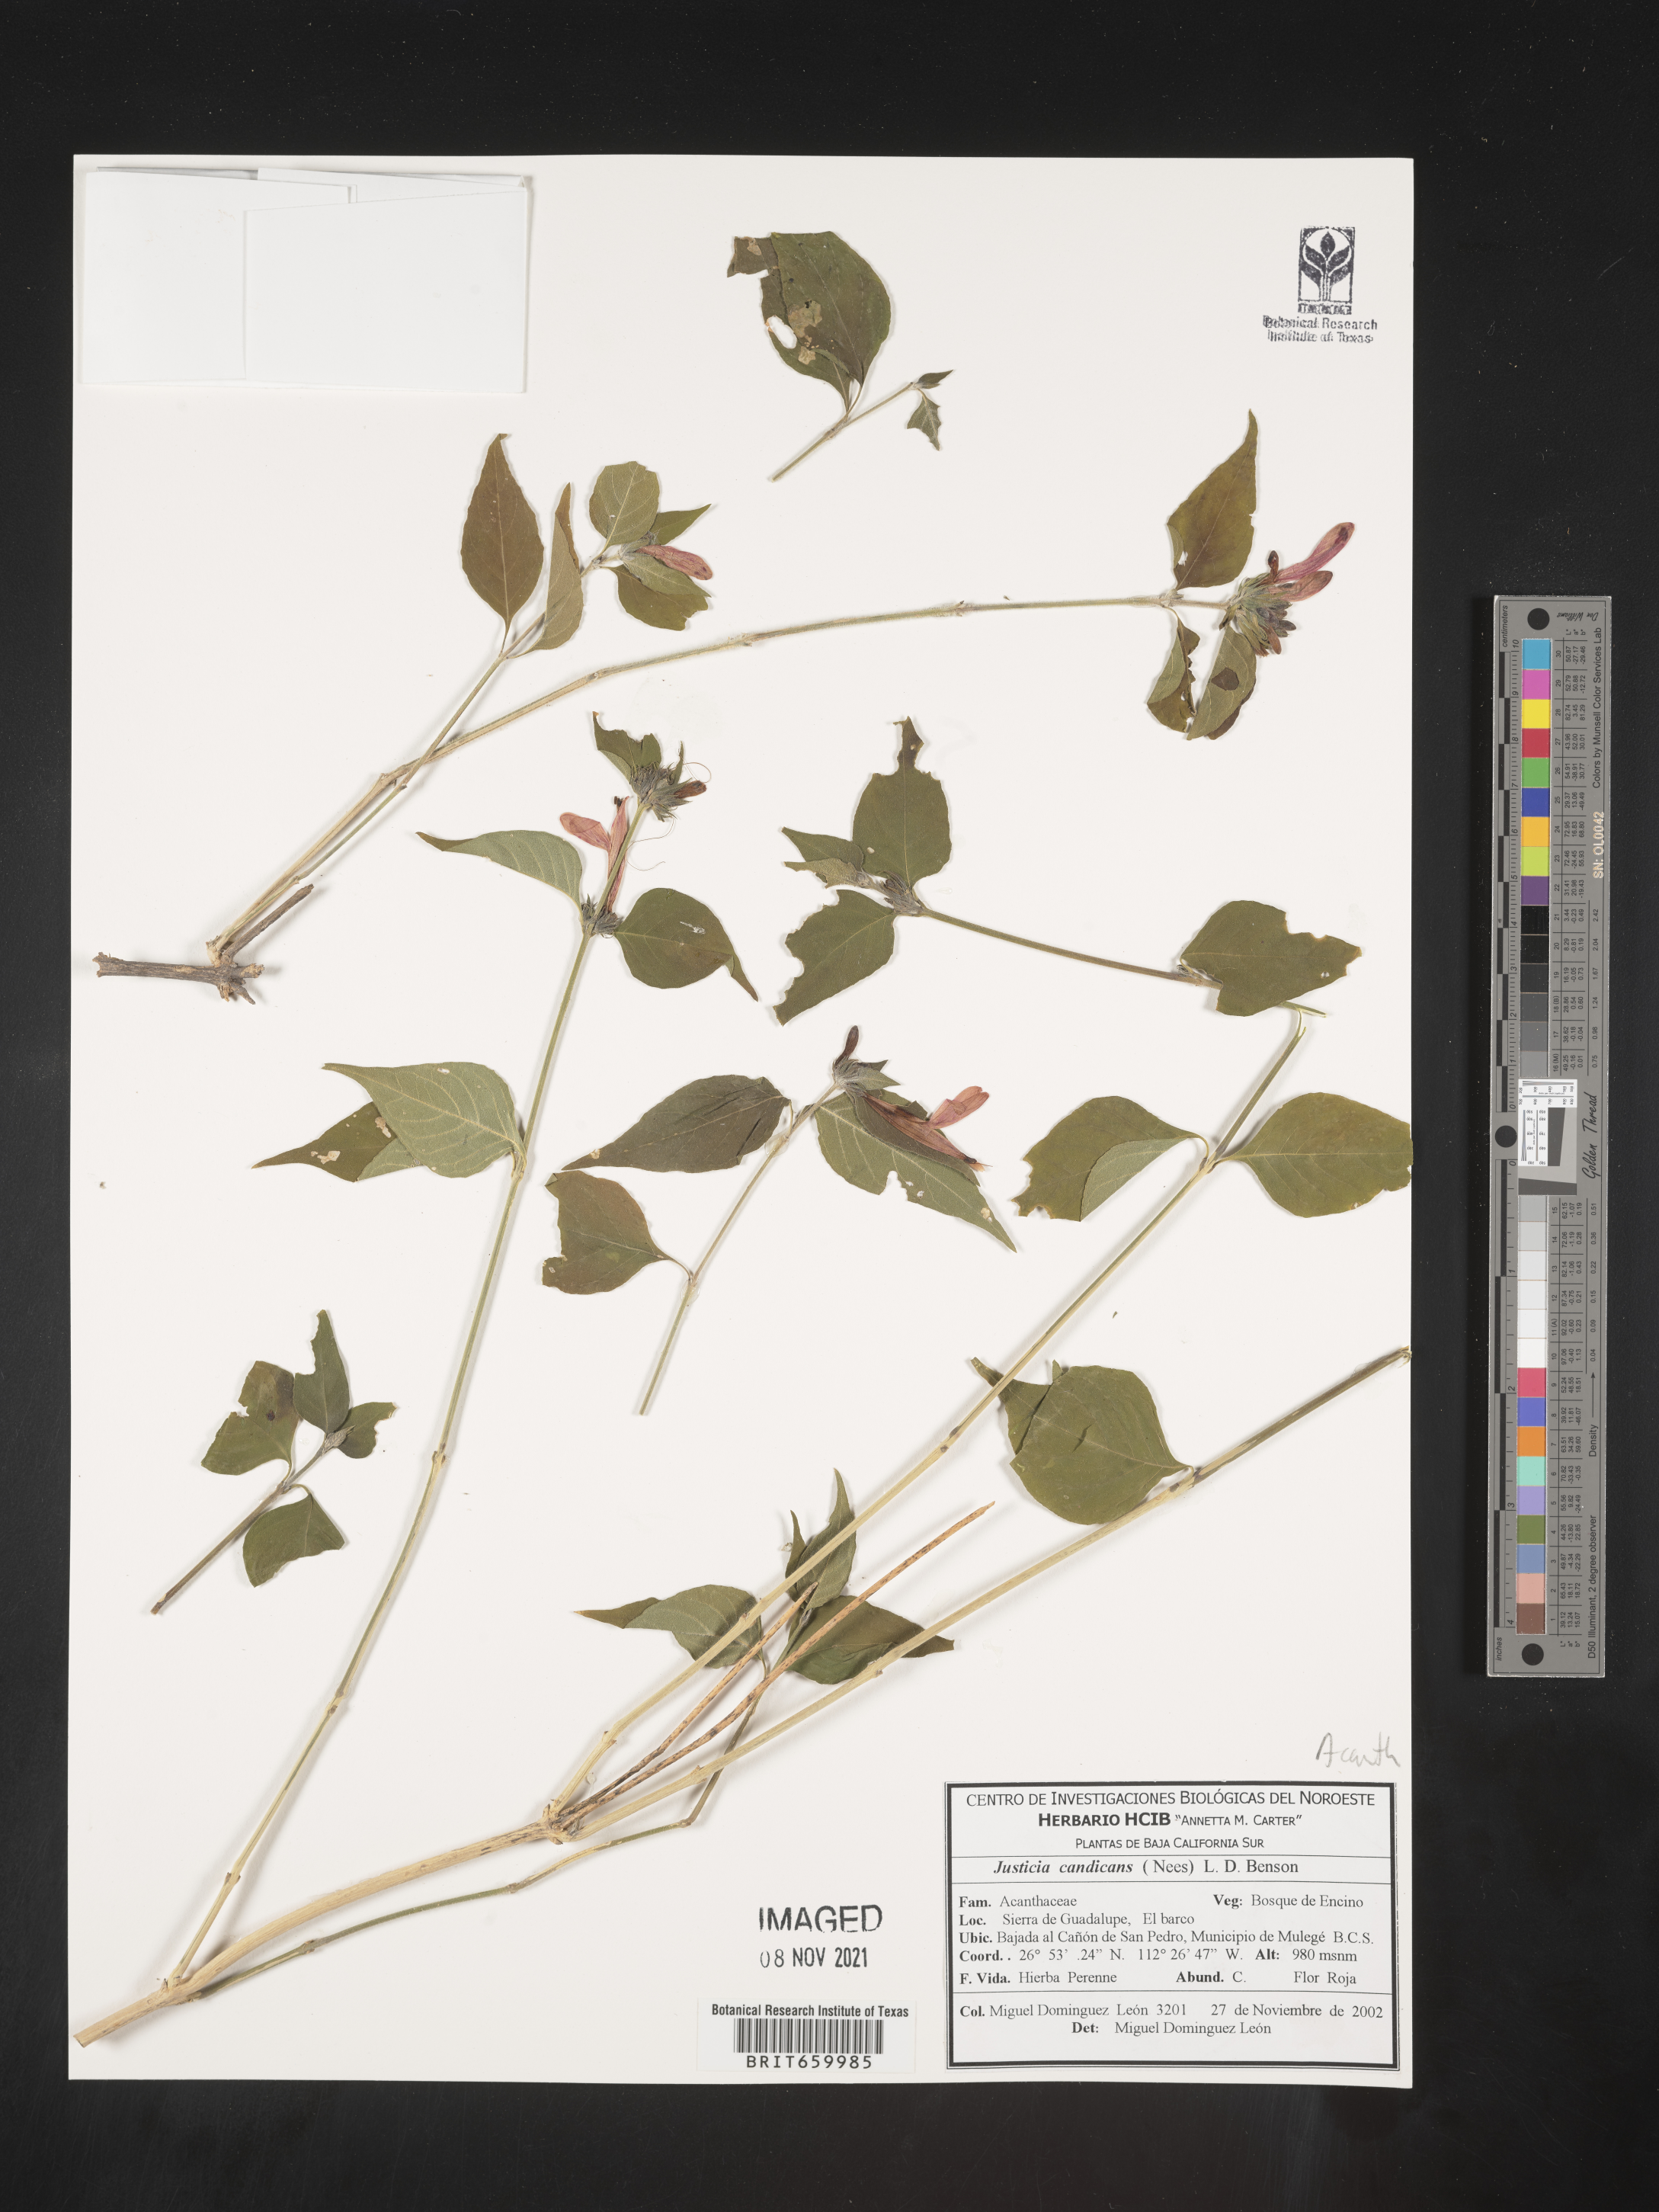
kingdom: Plantae
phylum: Tracheophyta
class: Magnoliopsida
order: Lamiales
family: Acanthaceae
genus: Justicia
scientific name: Justicia
